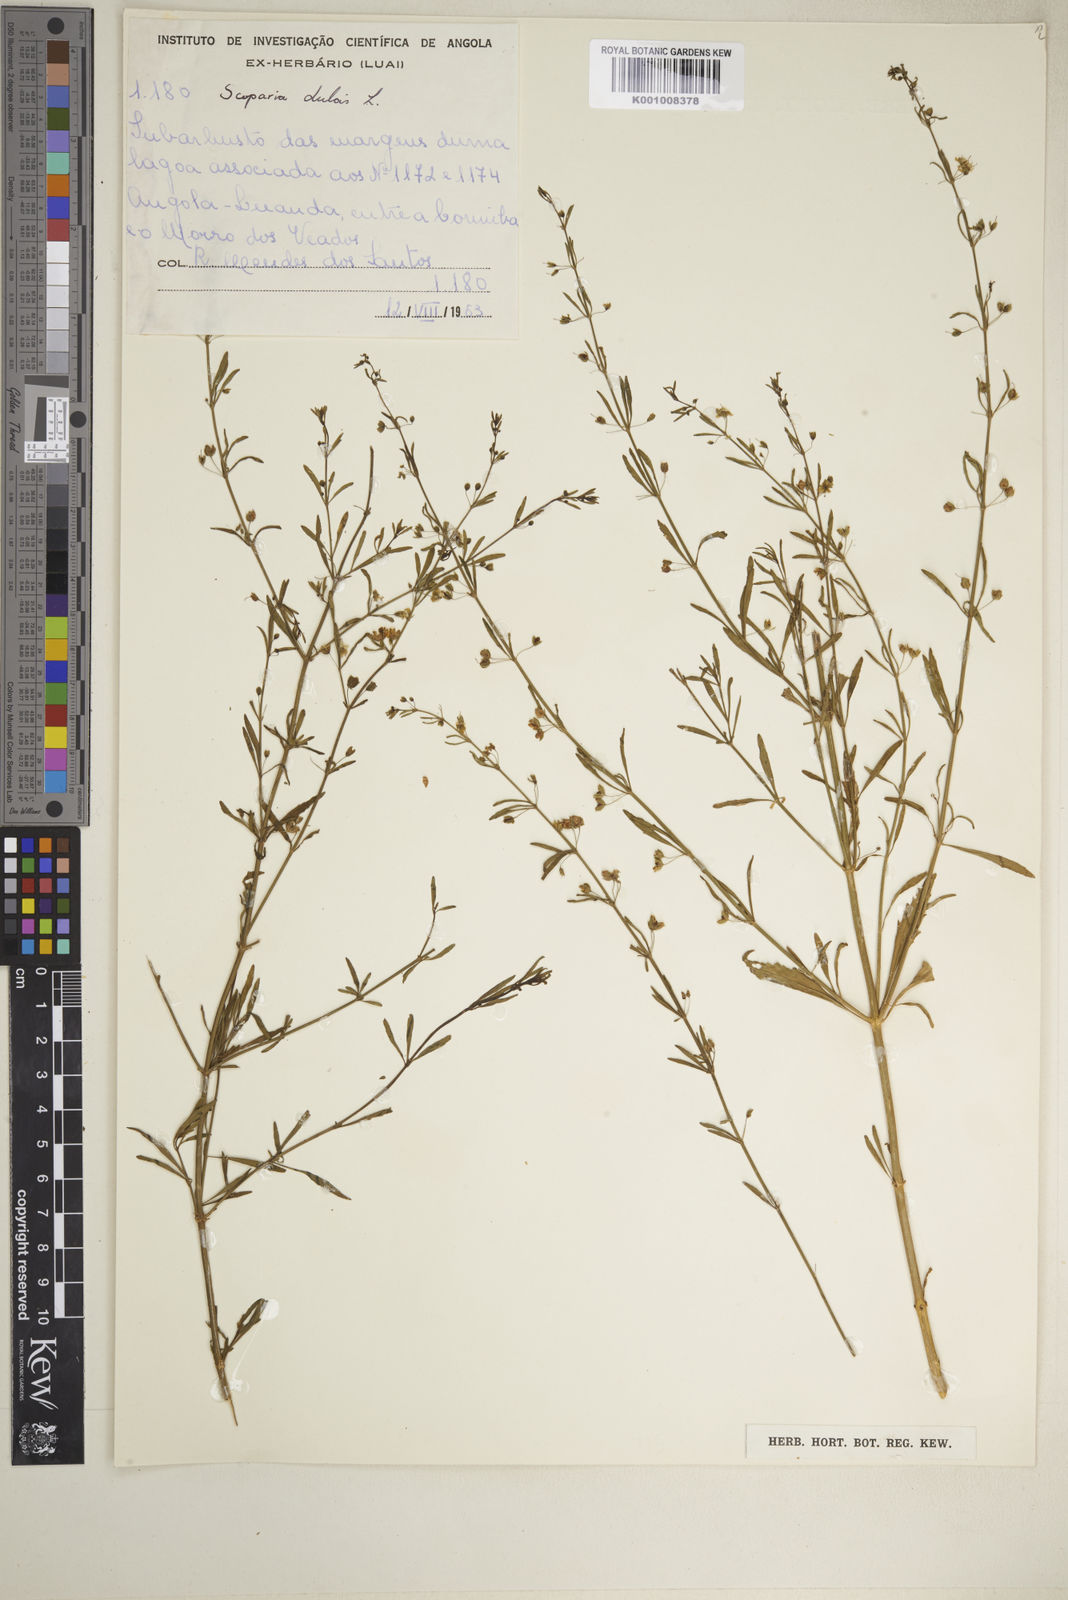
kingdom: Plantae
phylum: Tracheophyta
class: Magnoliopsida
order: Lamiales
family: Plantaginaceae
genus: Scoparia
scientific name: Scoparia dulcis
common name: Scoparia-weed
